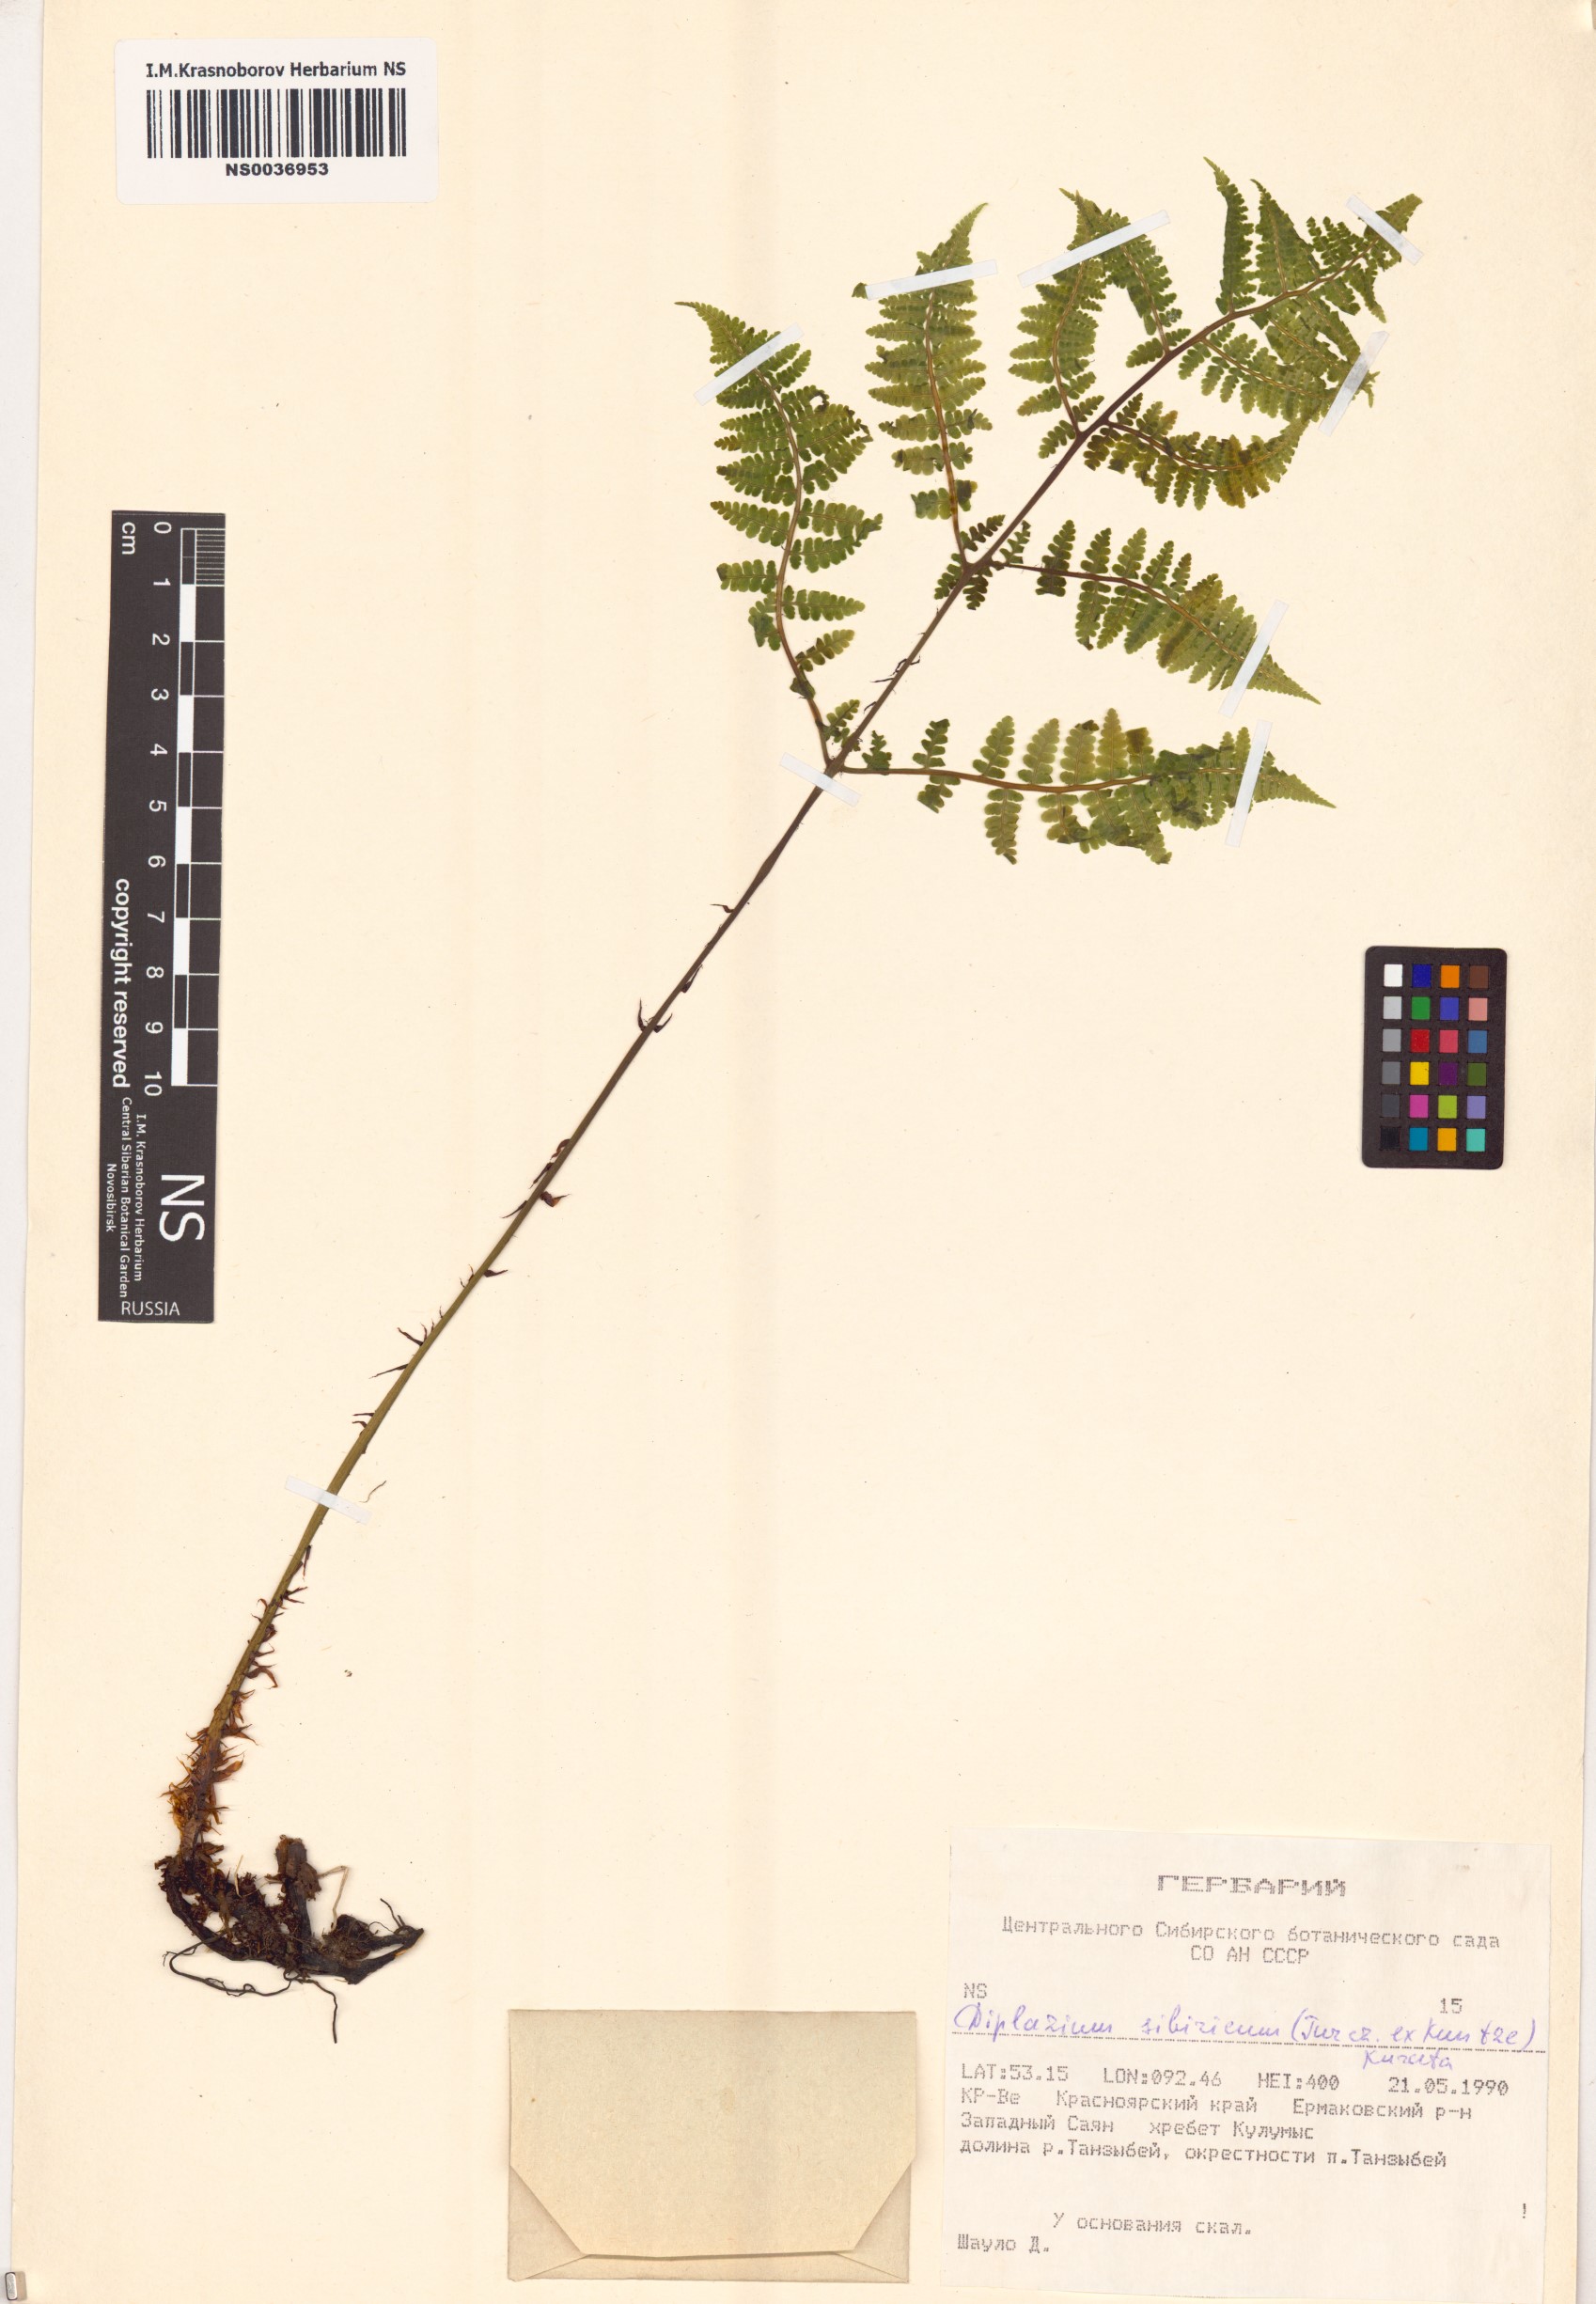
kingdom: Plantae
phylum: Tracheophyta
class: Polypodiopsida
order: Polypodiales
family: Athyriaceae
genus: Diplazium
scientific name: Diplazium sibiricum
